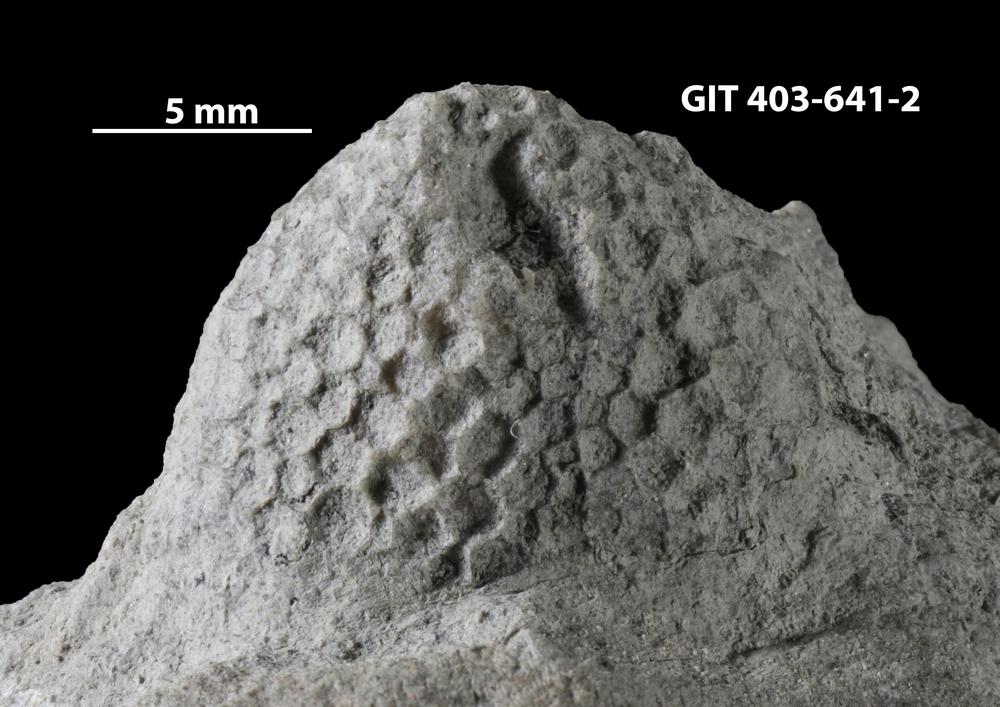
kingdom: Animalia
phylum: Cnidaria
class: Anthozoa
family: Favositidae
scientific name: Favositidae
